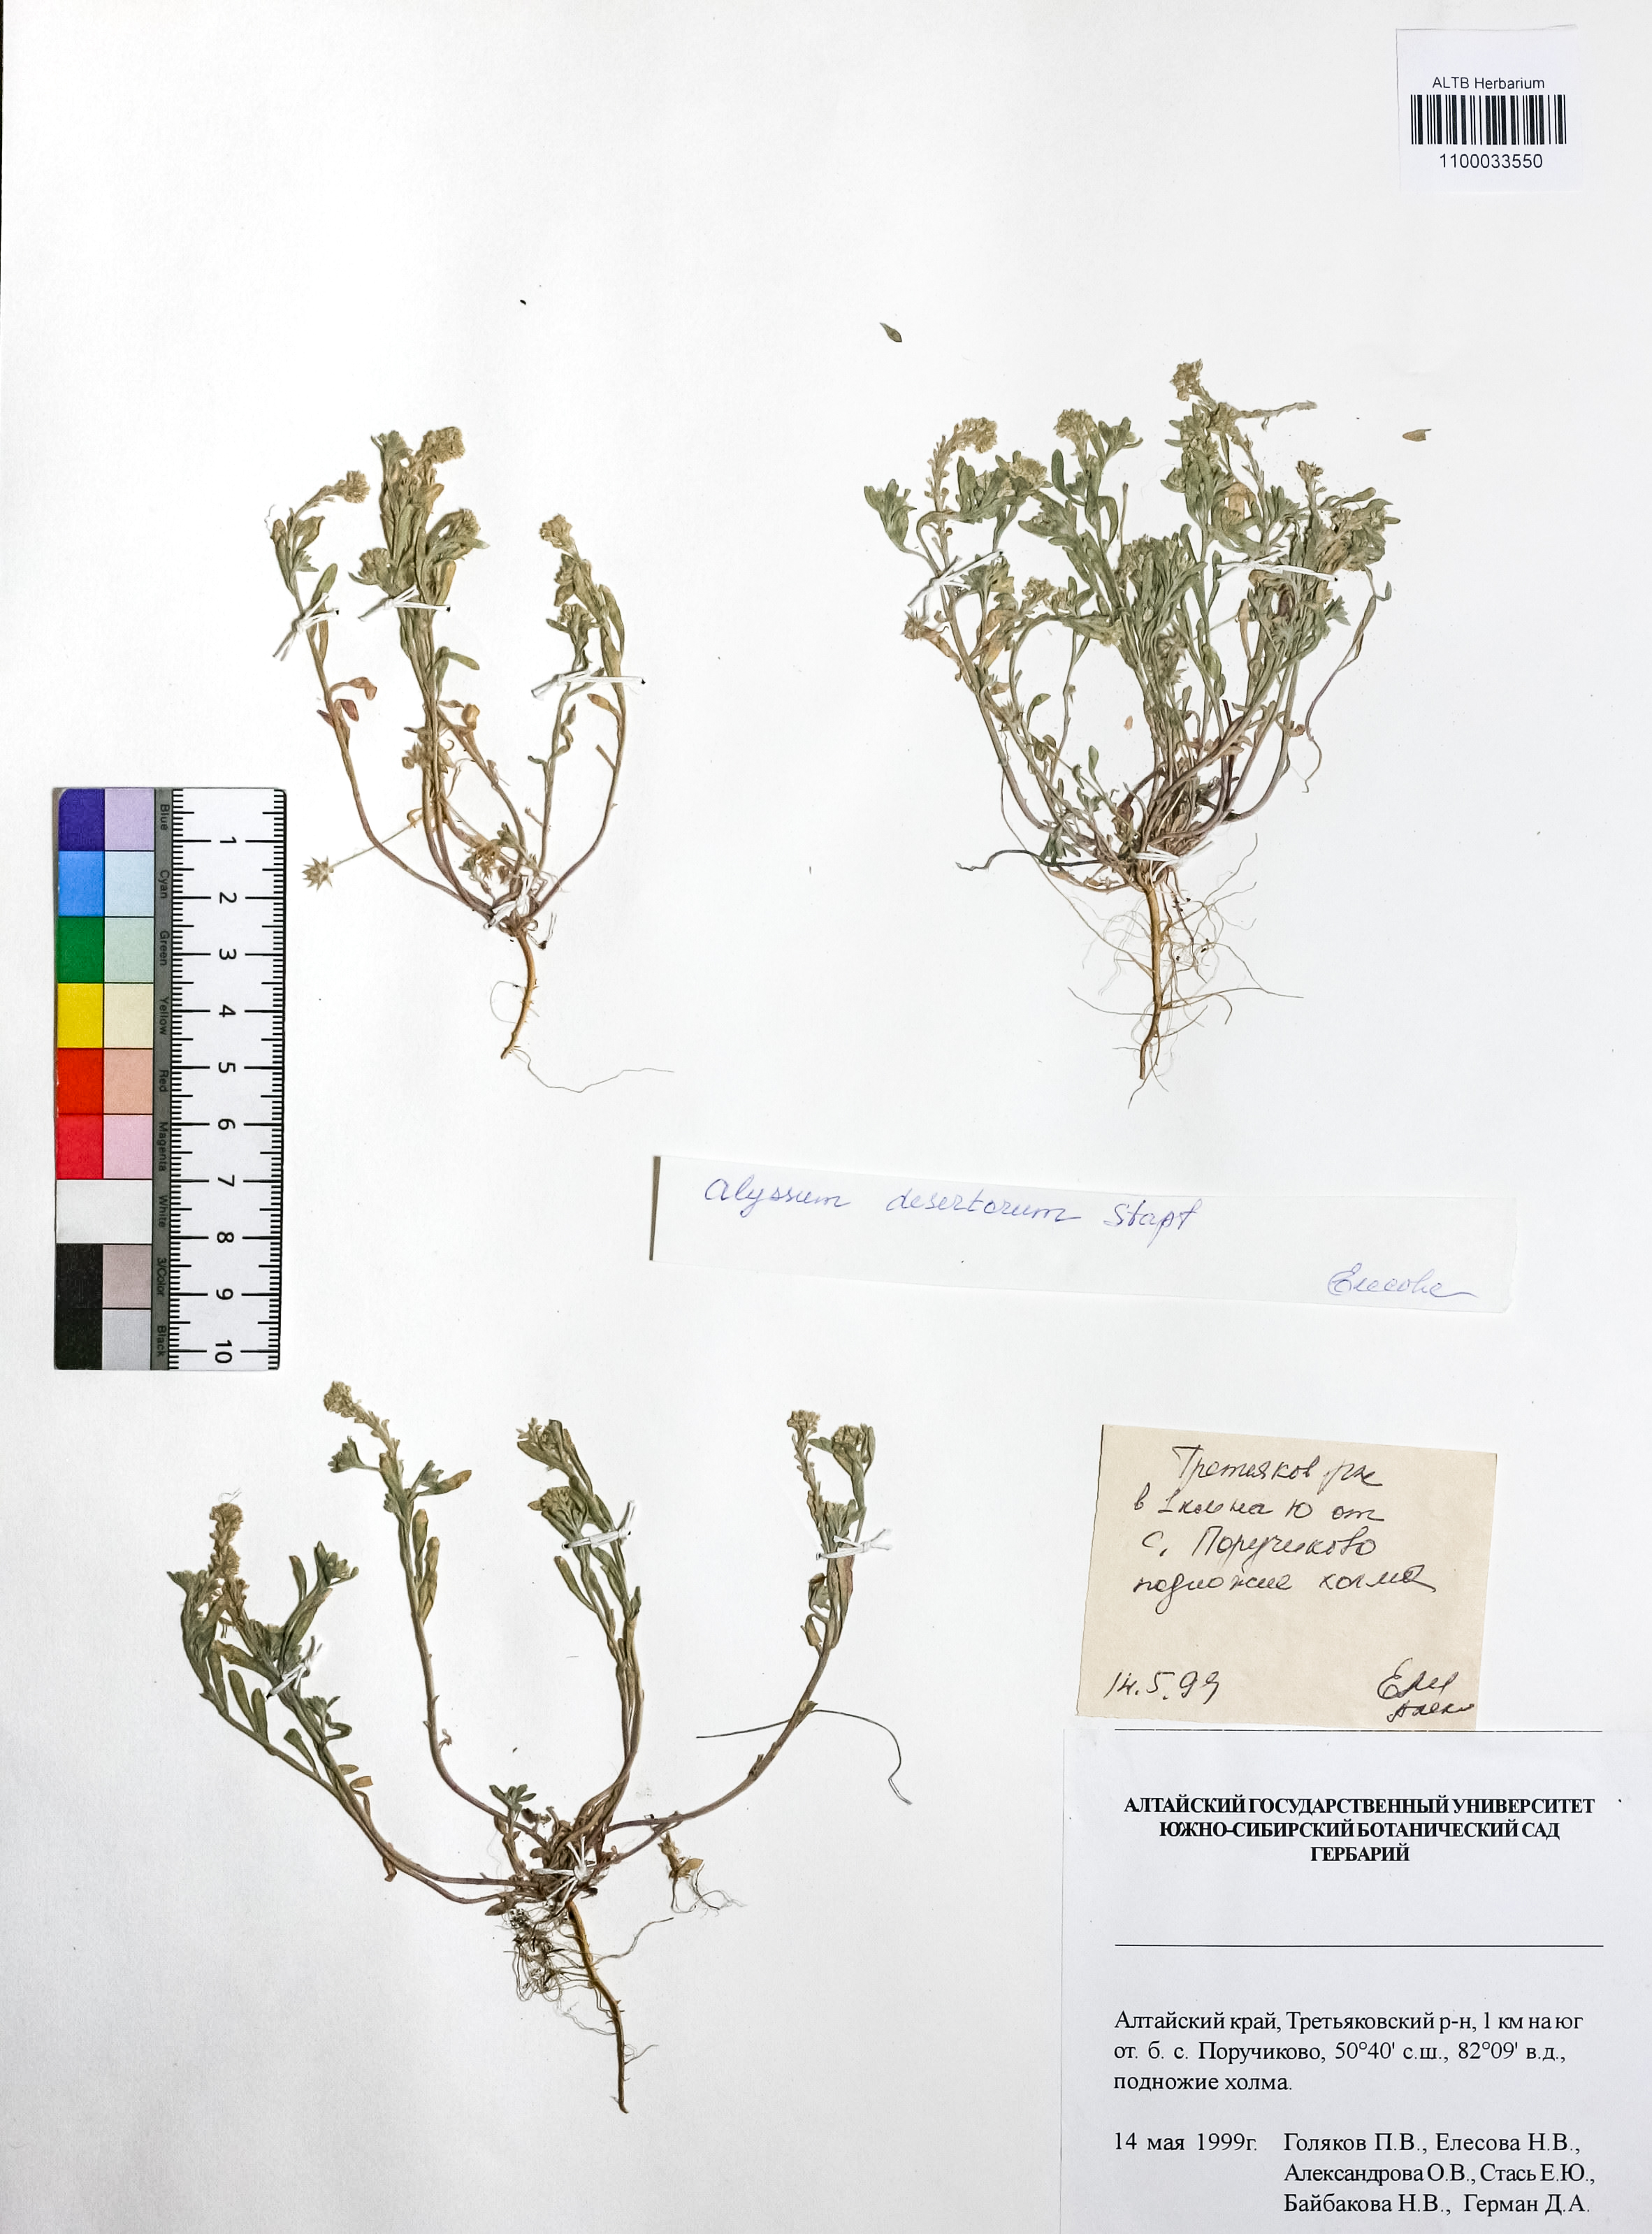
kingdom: Plantae
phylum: Tracheophyta
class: Magnoliopsida
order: Brassicales
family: Brassicaceae
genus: Alyssum
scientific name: Alyssum turkestanicum
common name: Desert alyssum
